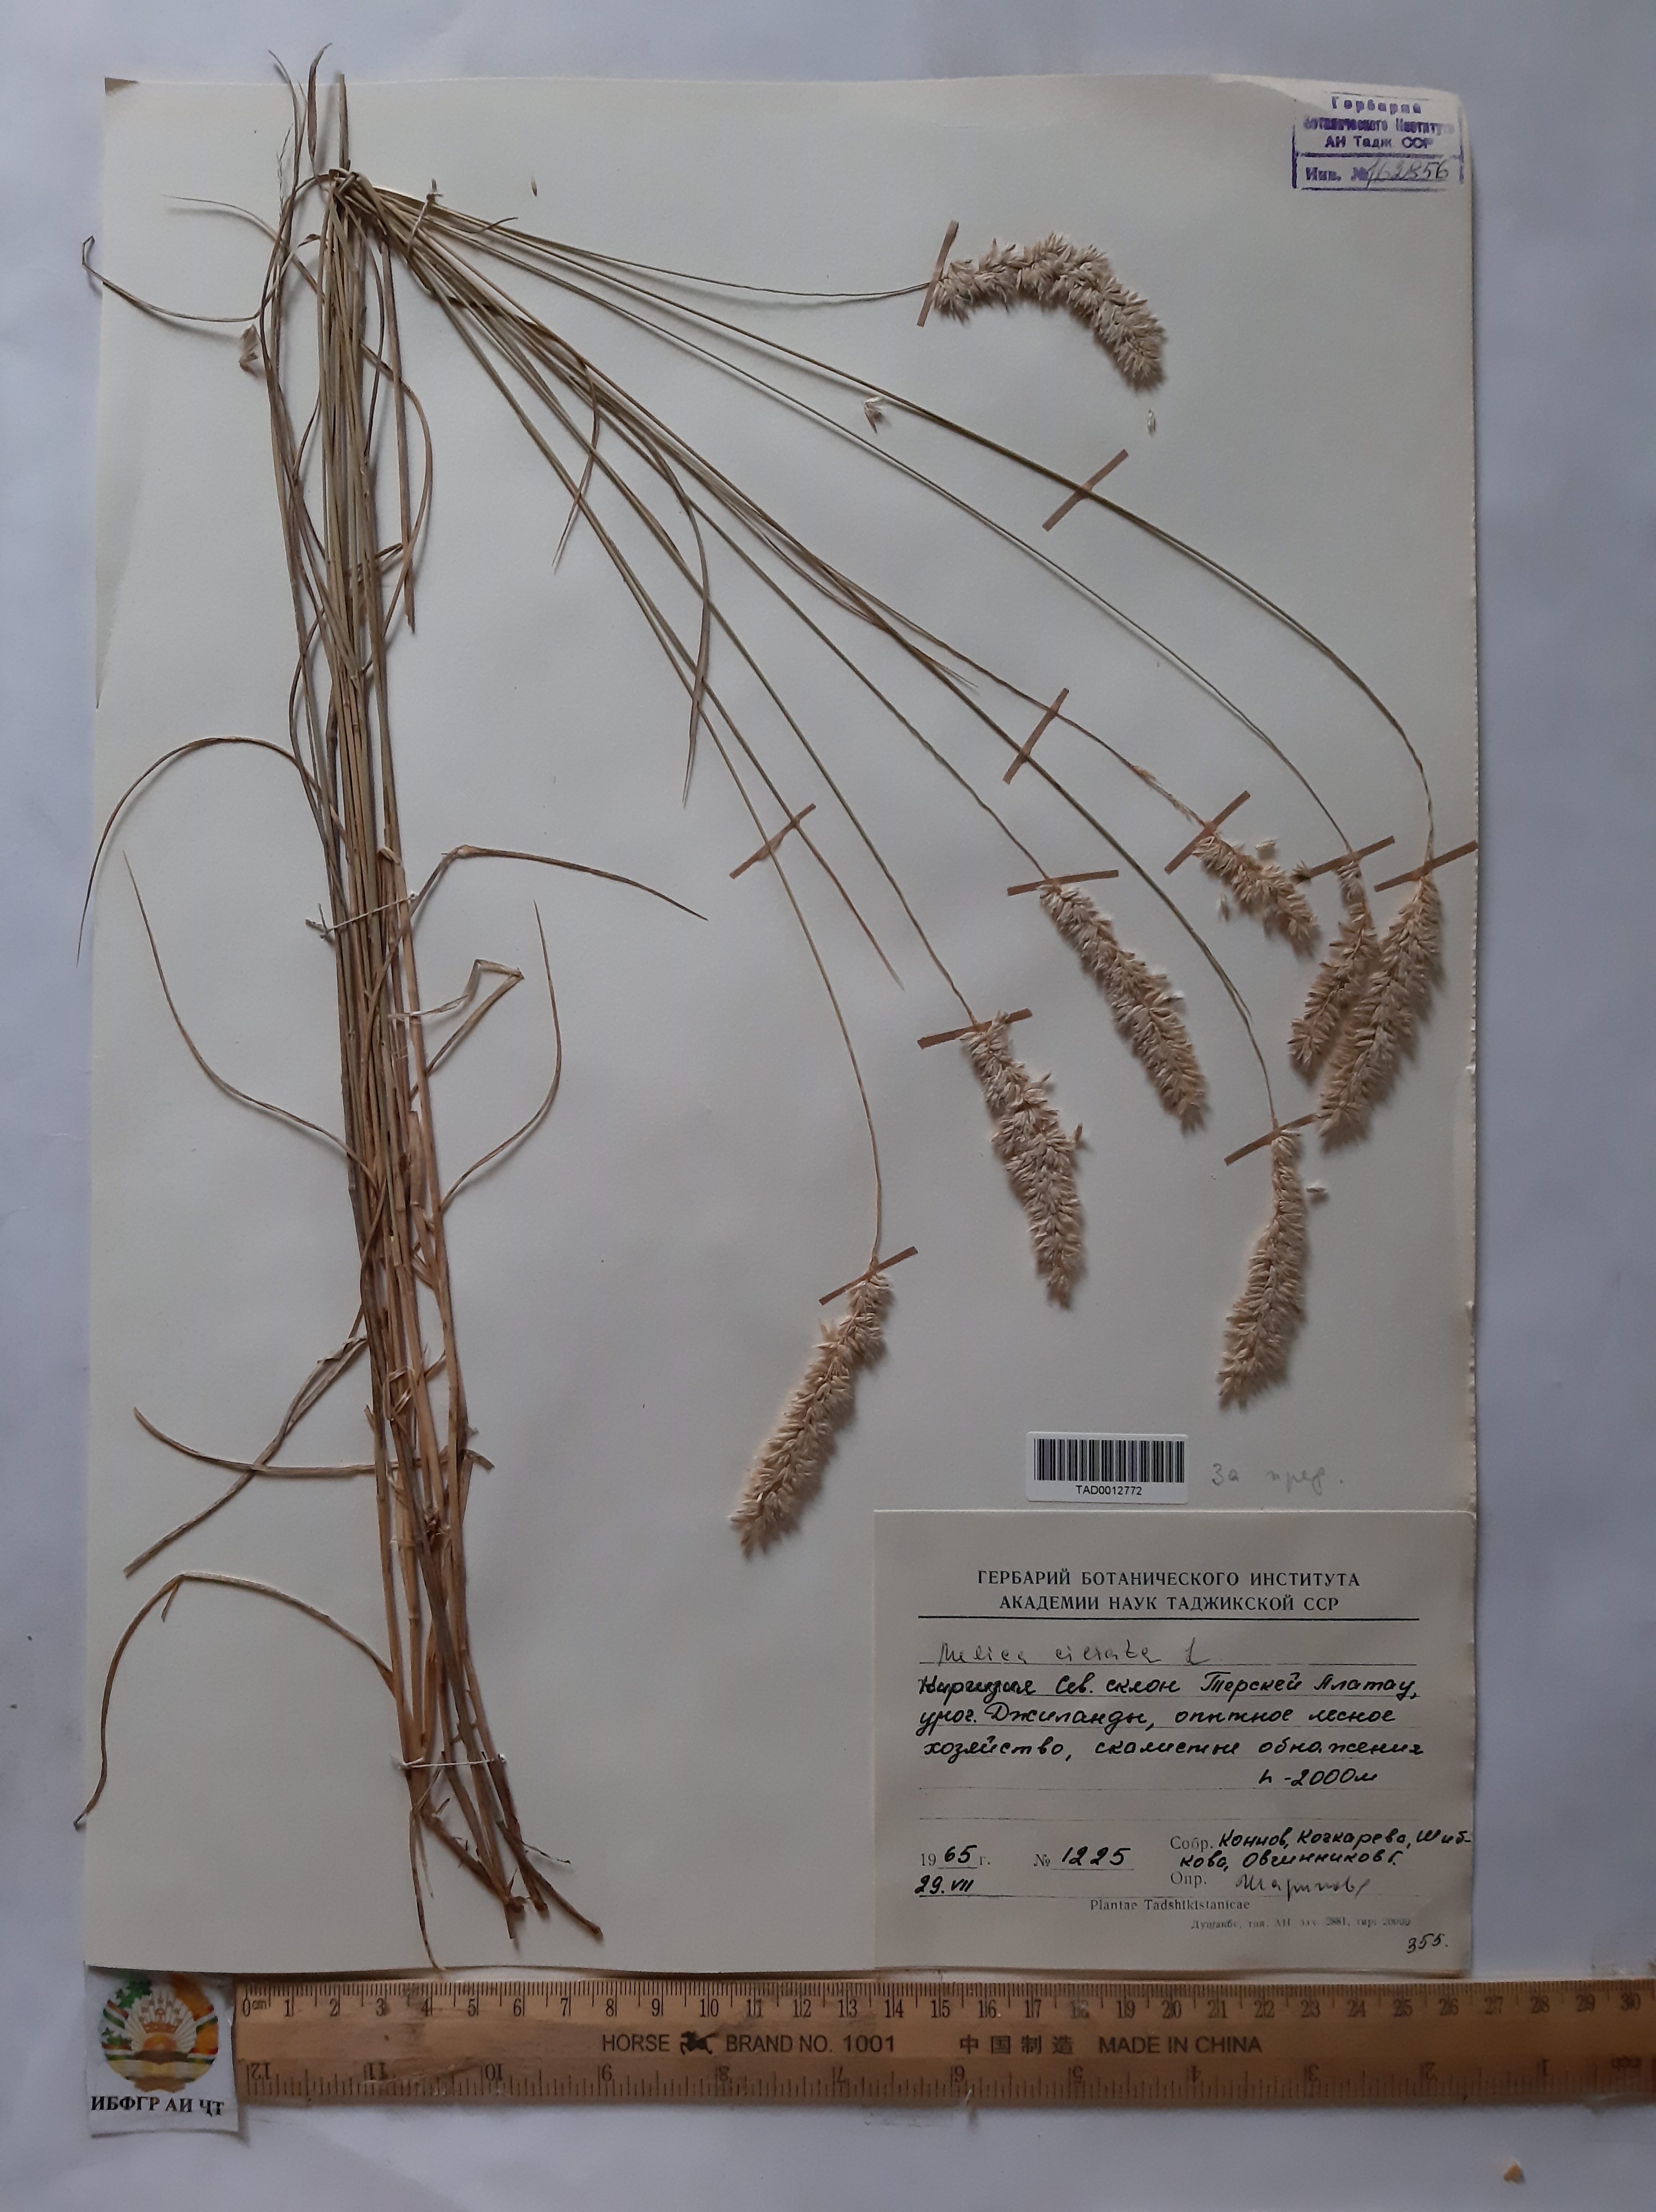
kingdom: Plantae
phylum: Tracheophyta
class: Liliopsida
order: Poales
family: Poaceae
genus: Melica
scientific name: Melica ciliata
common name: Hairy melicgrass
